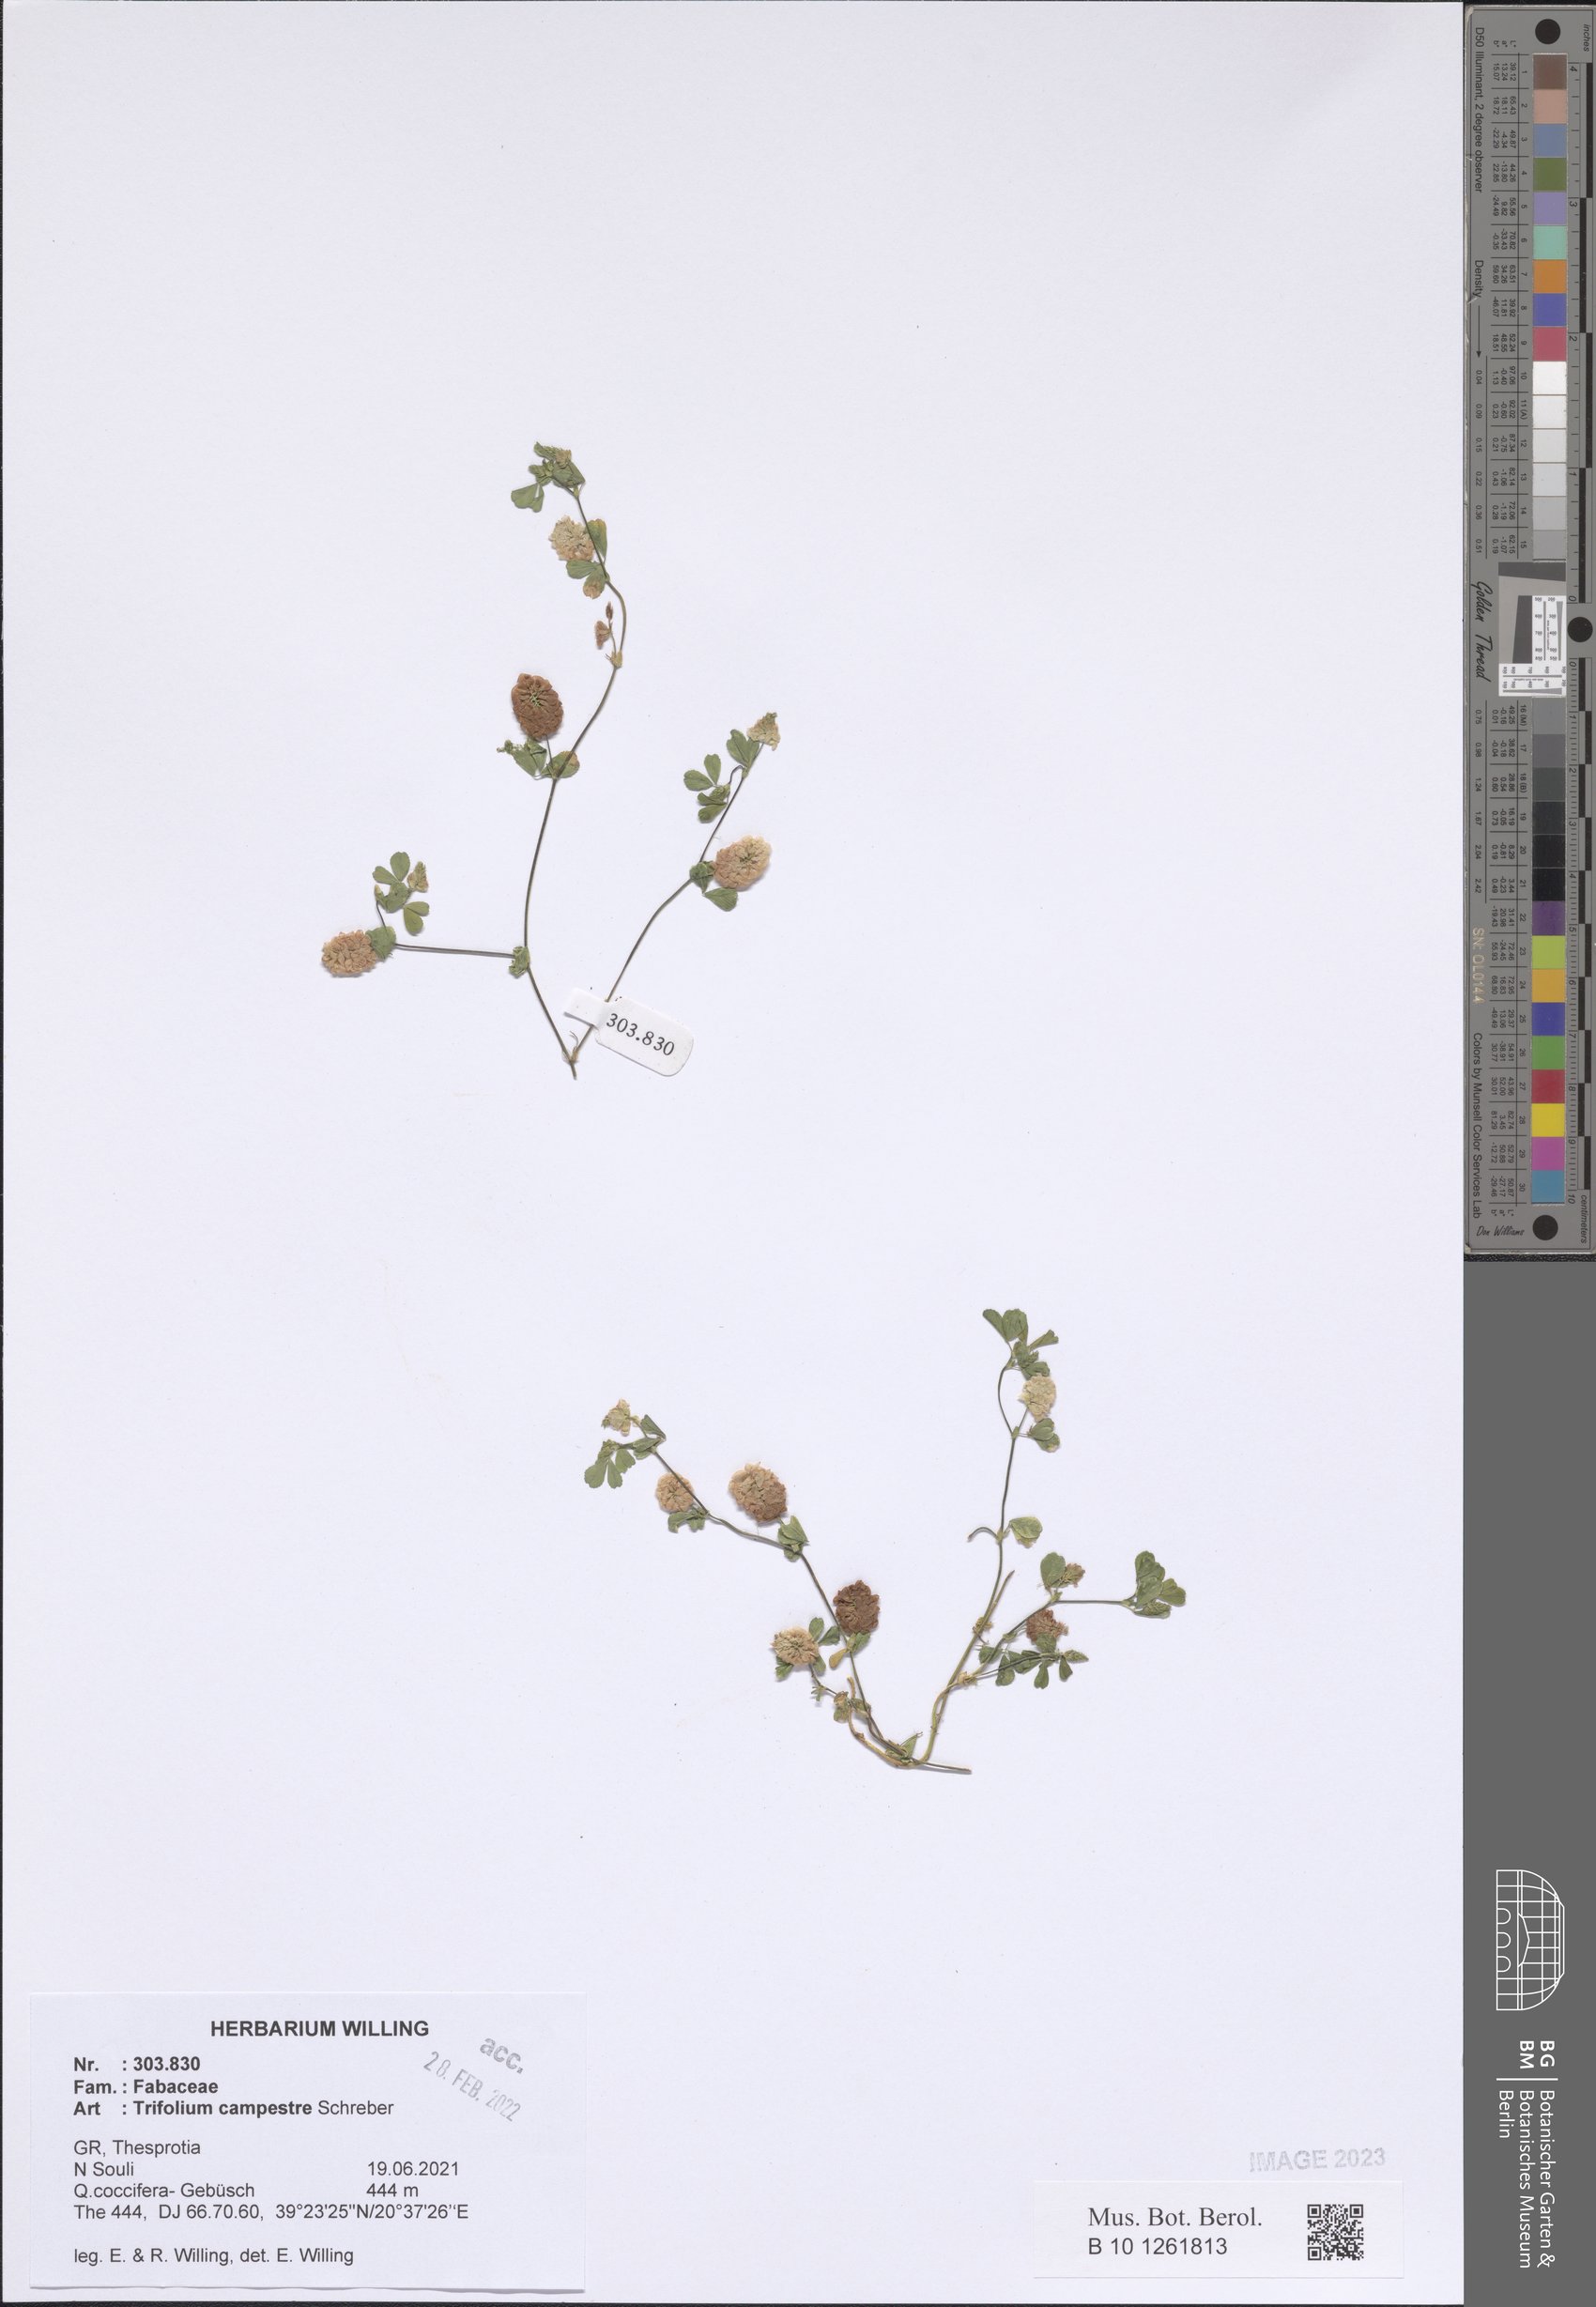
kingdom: Plantae
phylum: Tracheophyta
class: Magnoliopsida
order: Fabales
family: Fabaceae
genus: Trifolium
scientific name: Trifolium campestre
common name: Field clover
